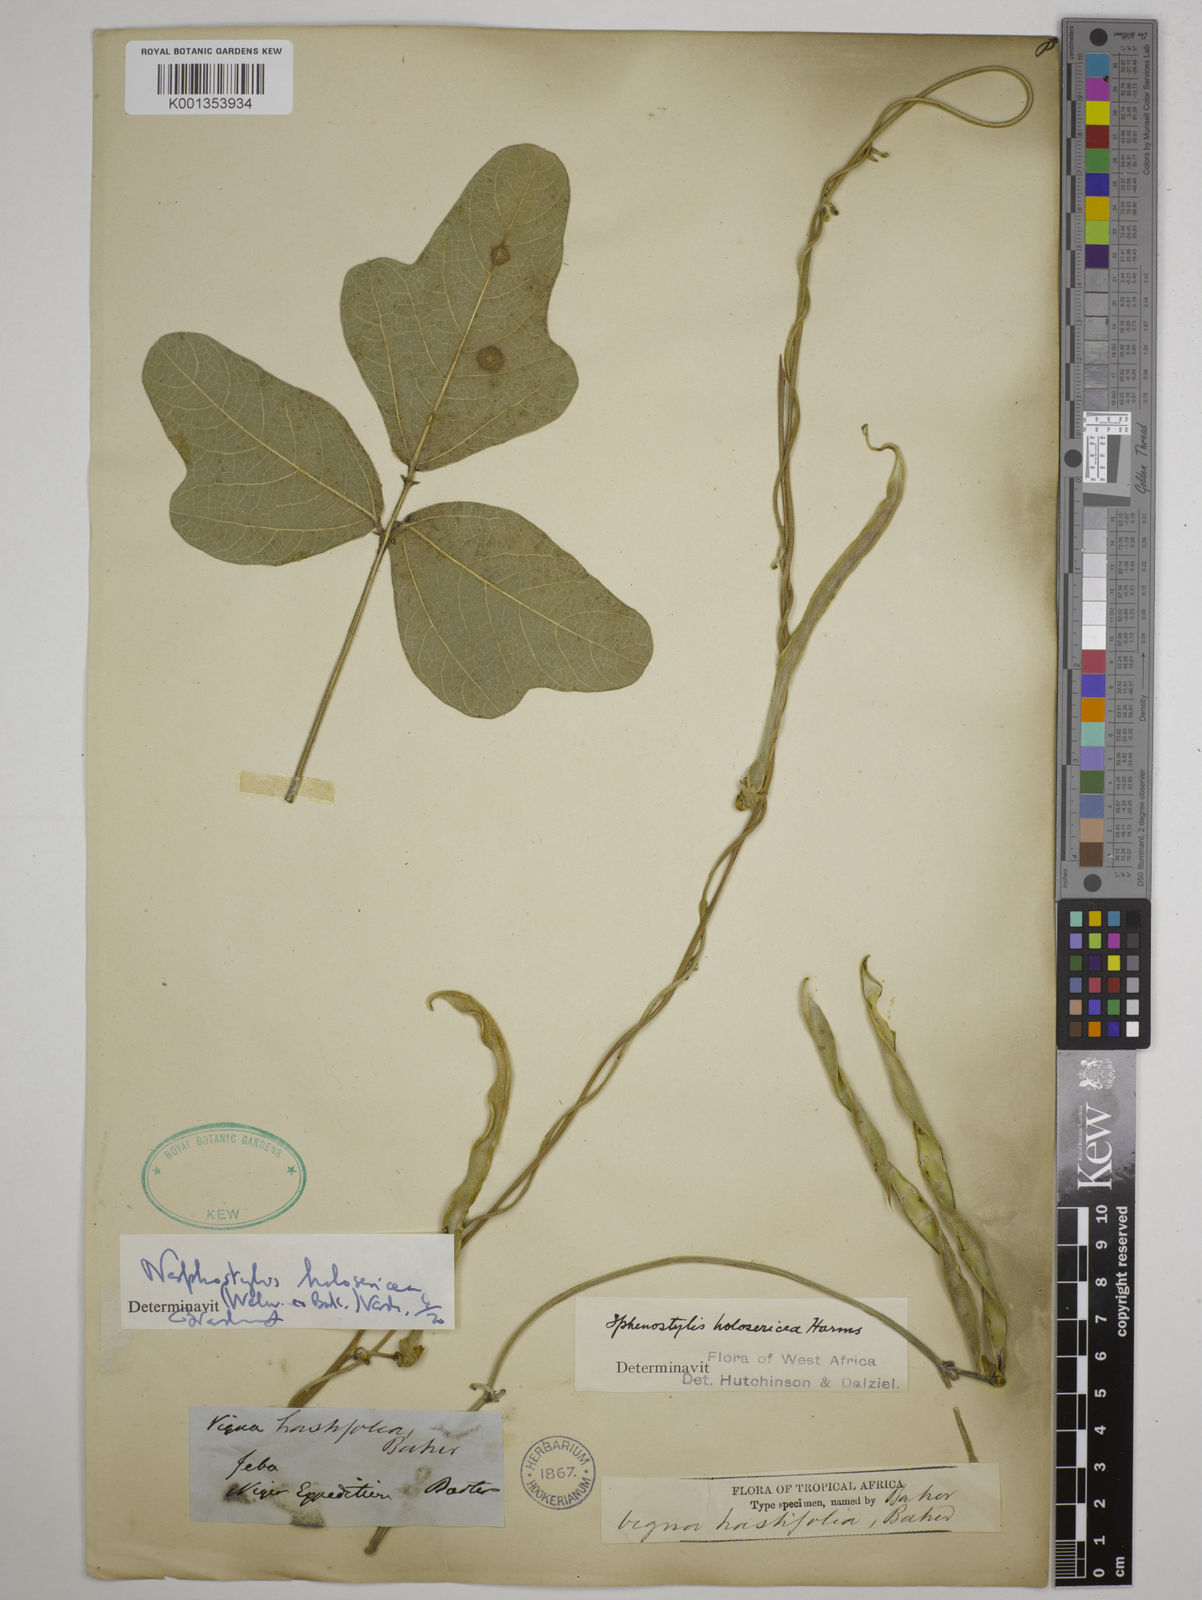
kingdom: Plantae
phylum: Tracheophyta
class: Magnoliopsida
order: Fabales
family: Fabaceae
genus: Nesphostylis
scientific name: Nesphostylis holosericea
